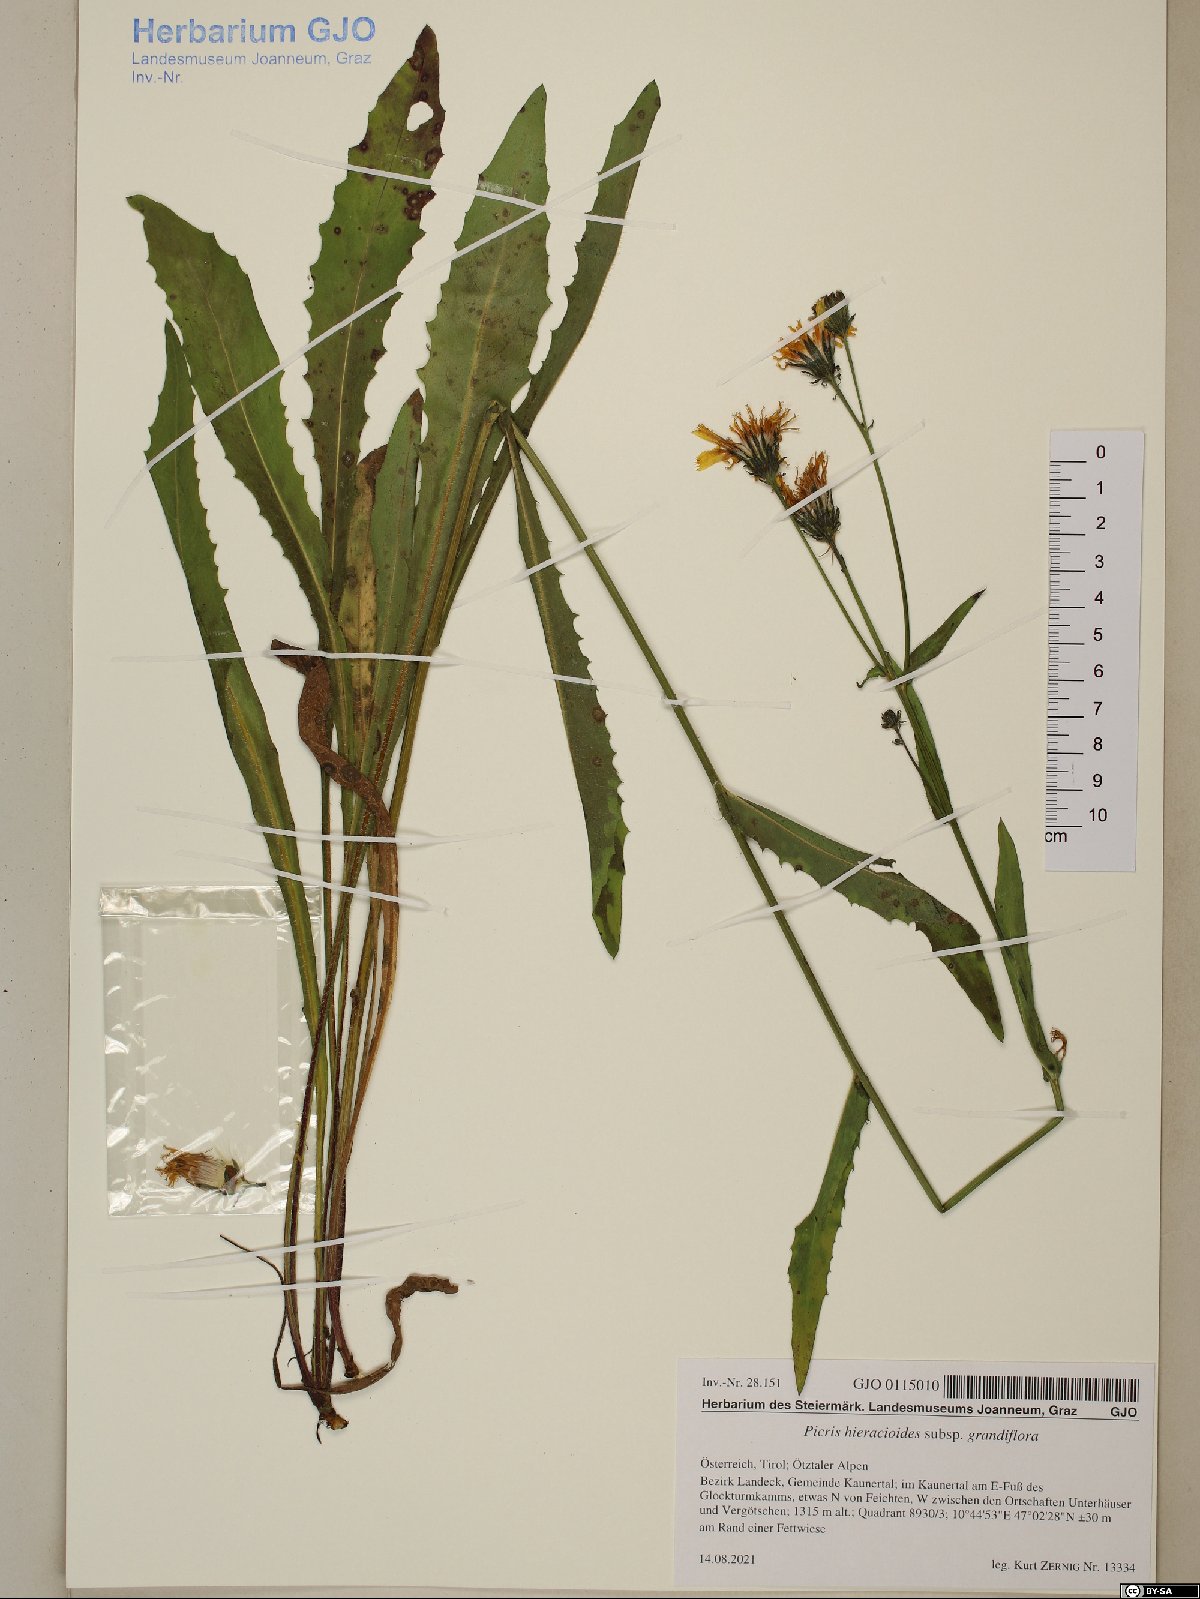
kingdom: Plantae
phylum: Tracheophyta
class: Magnoliopsida
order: Asterales
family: Asteraceae
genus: Picris
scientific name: Picris hieracioides
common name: Hawkweed oxtongue
